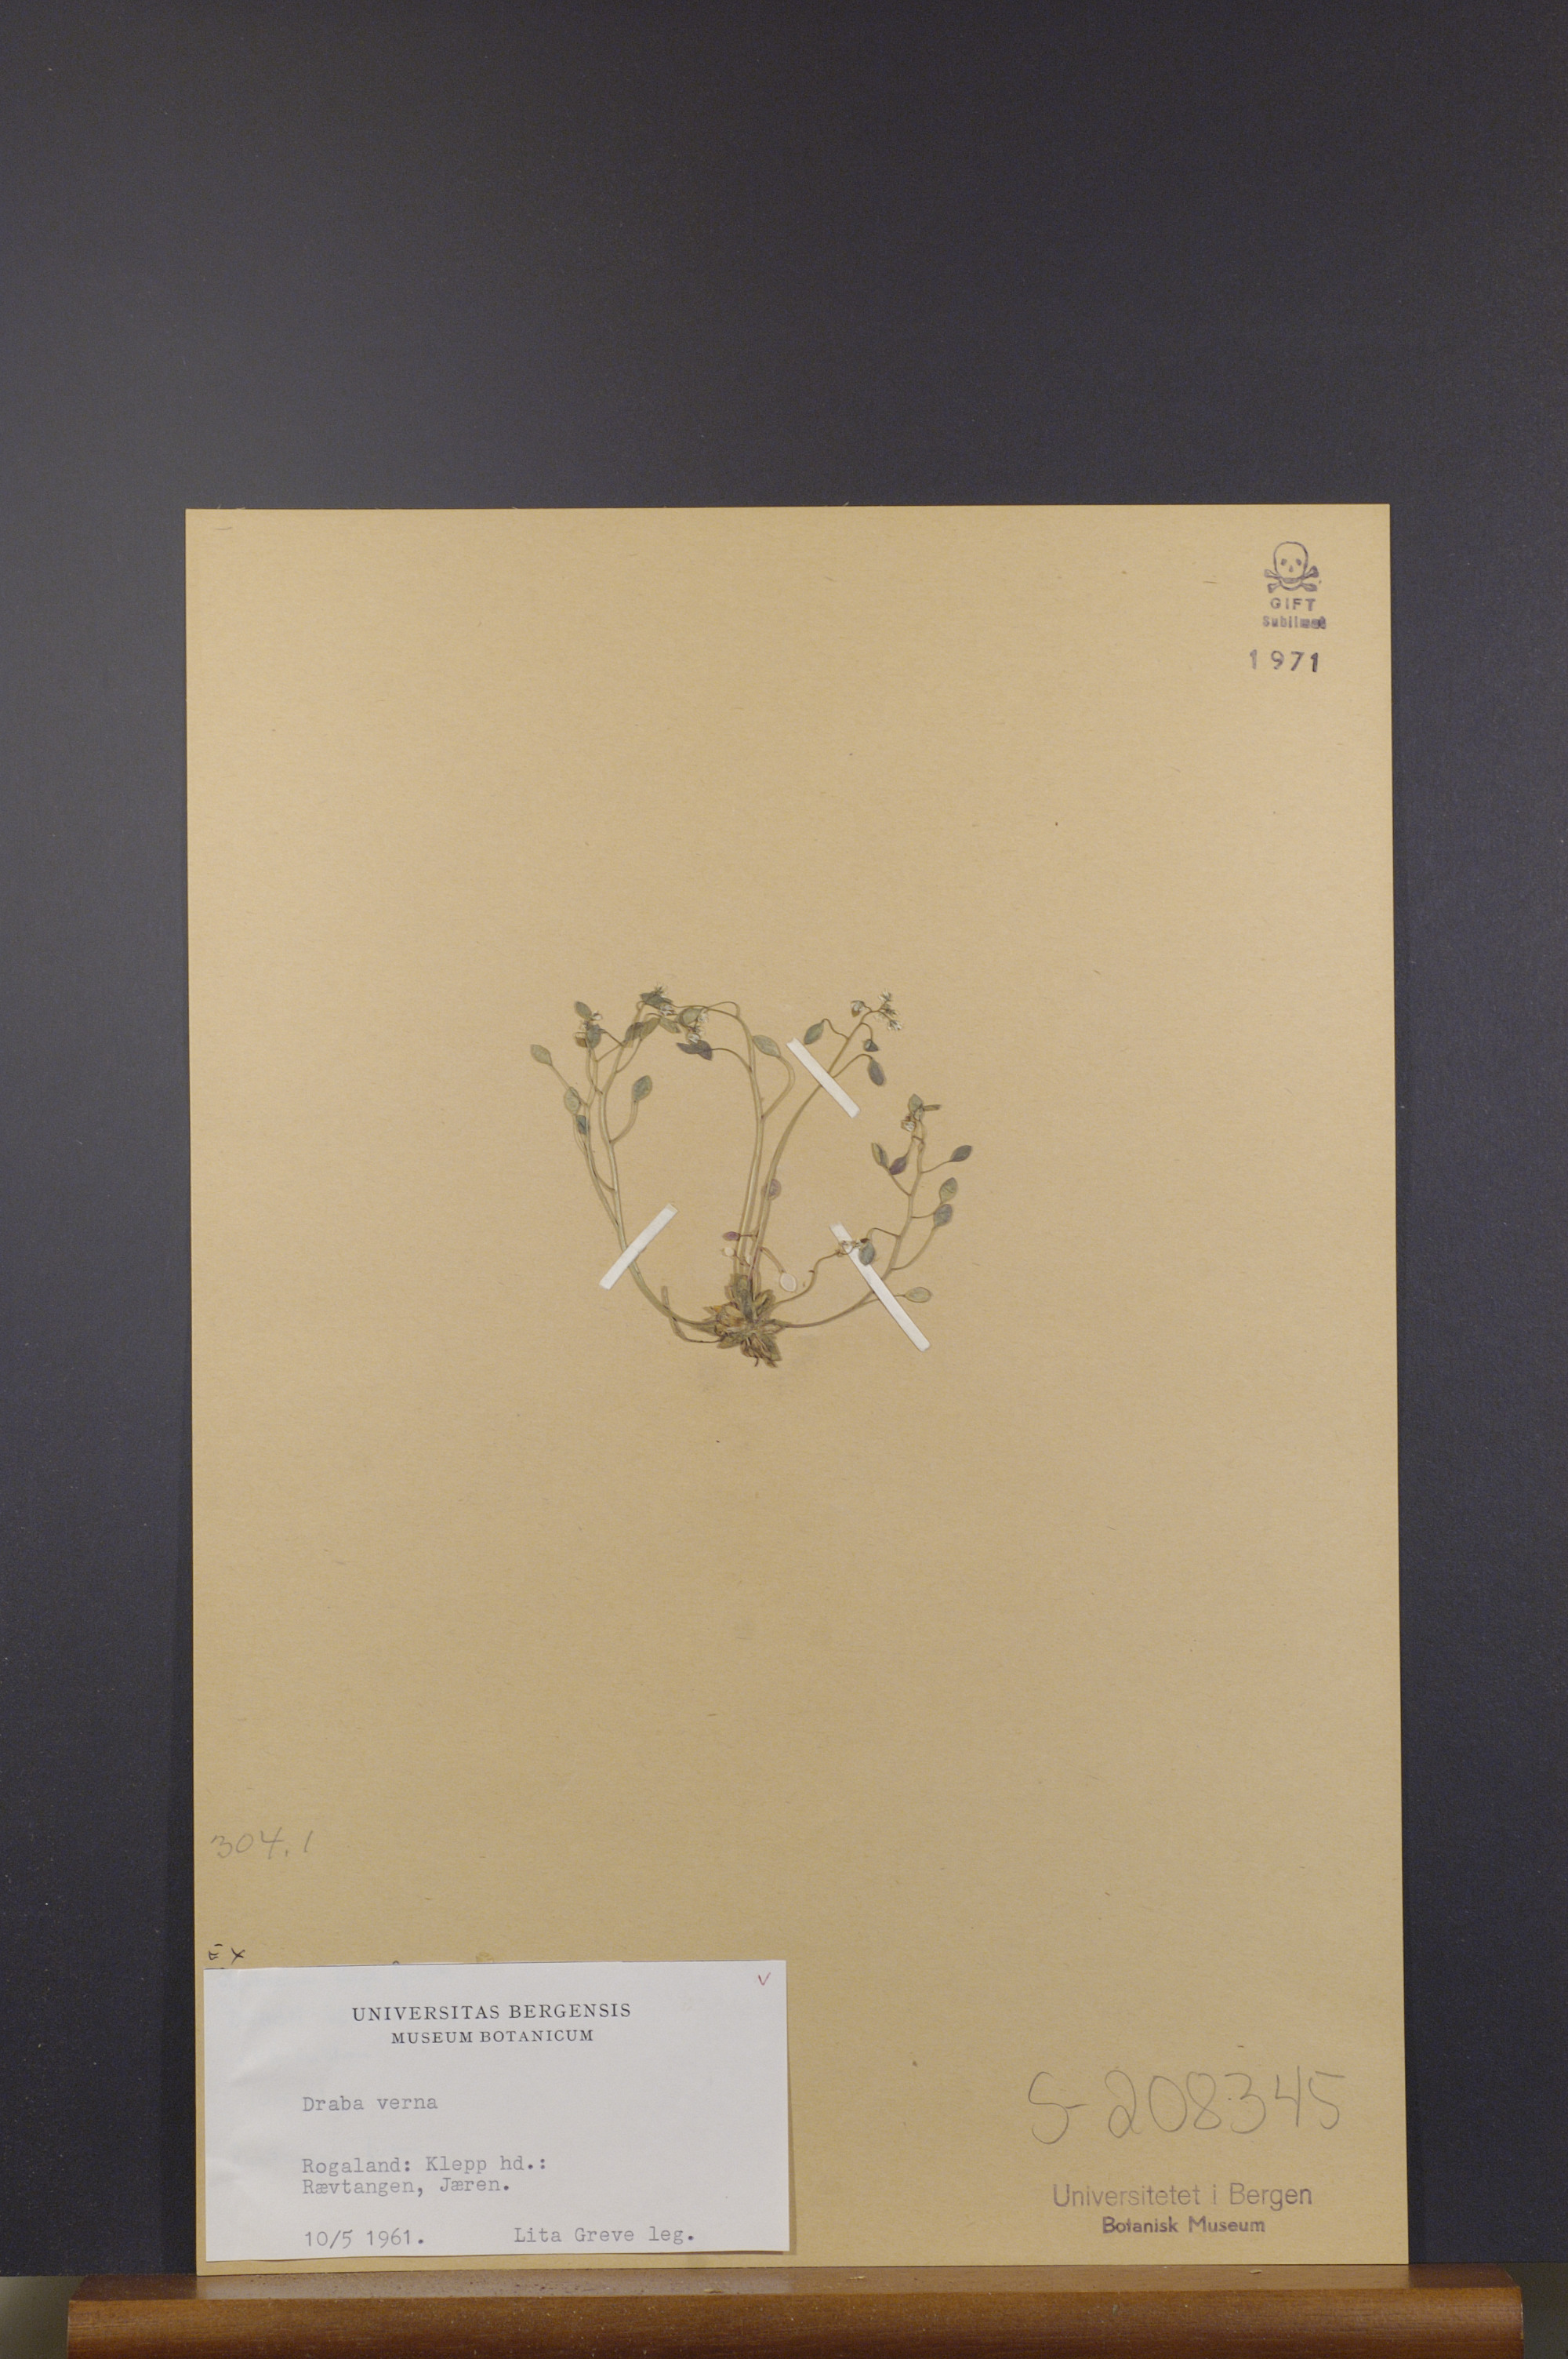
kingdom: Plantae
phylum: Tracheophyta
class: Magnoliopsida
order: Brassicales
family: Brassicaceae
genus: Draba
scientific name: Draba verna
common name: Spring draba
